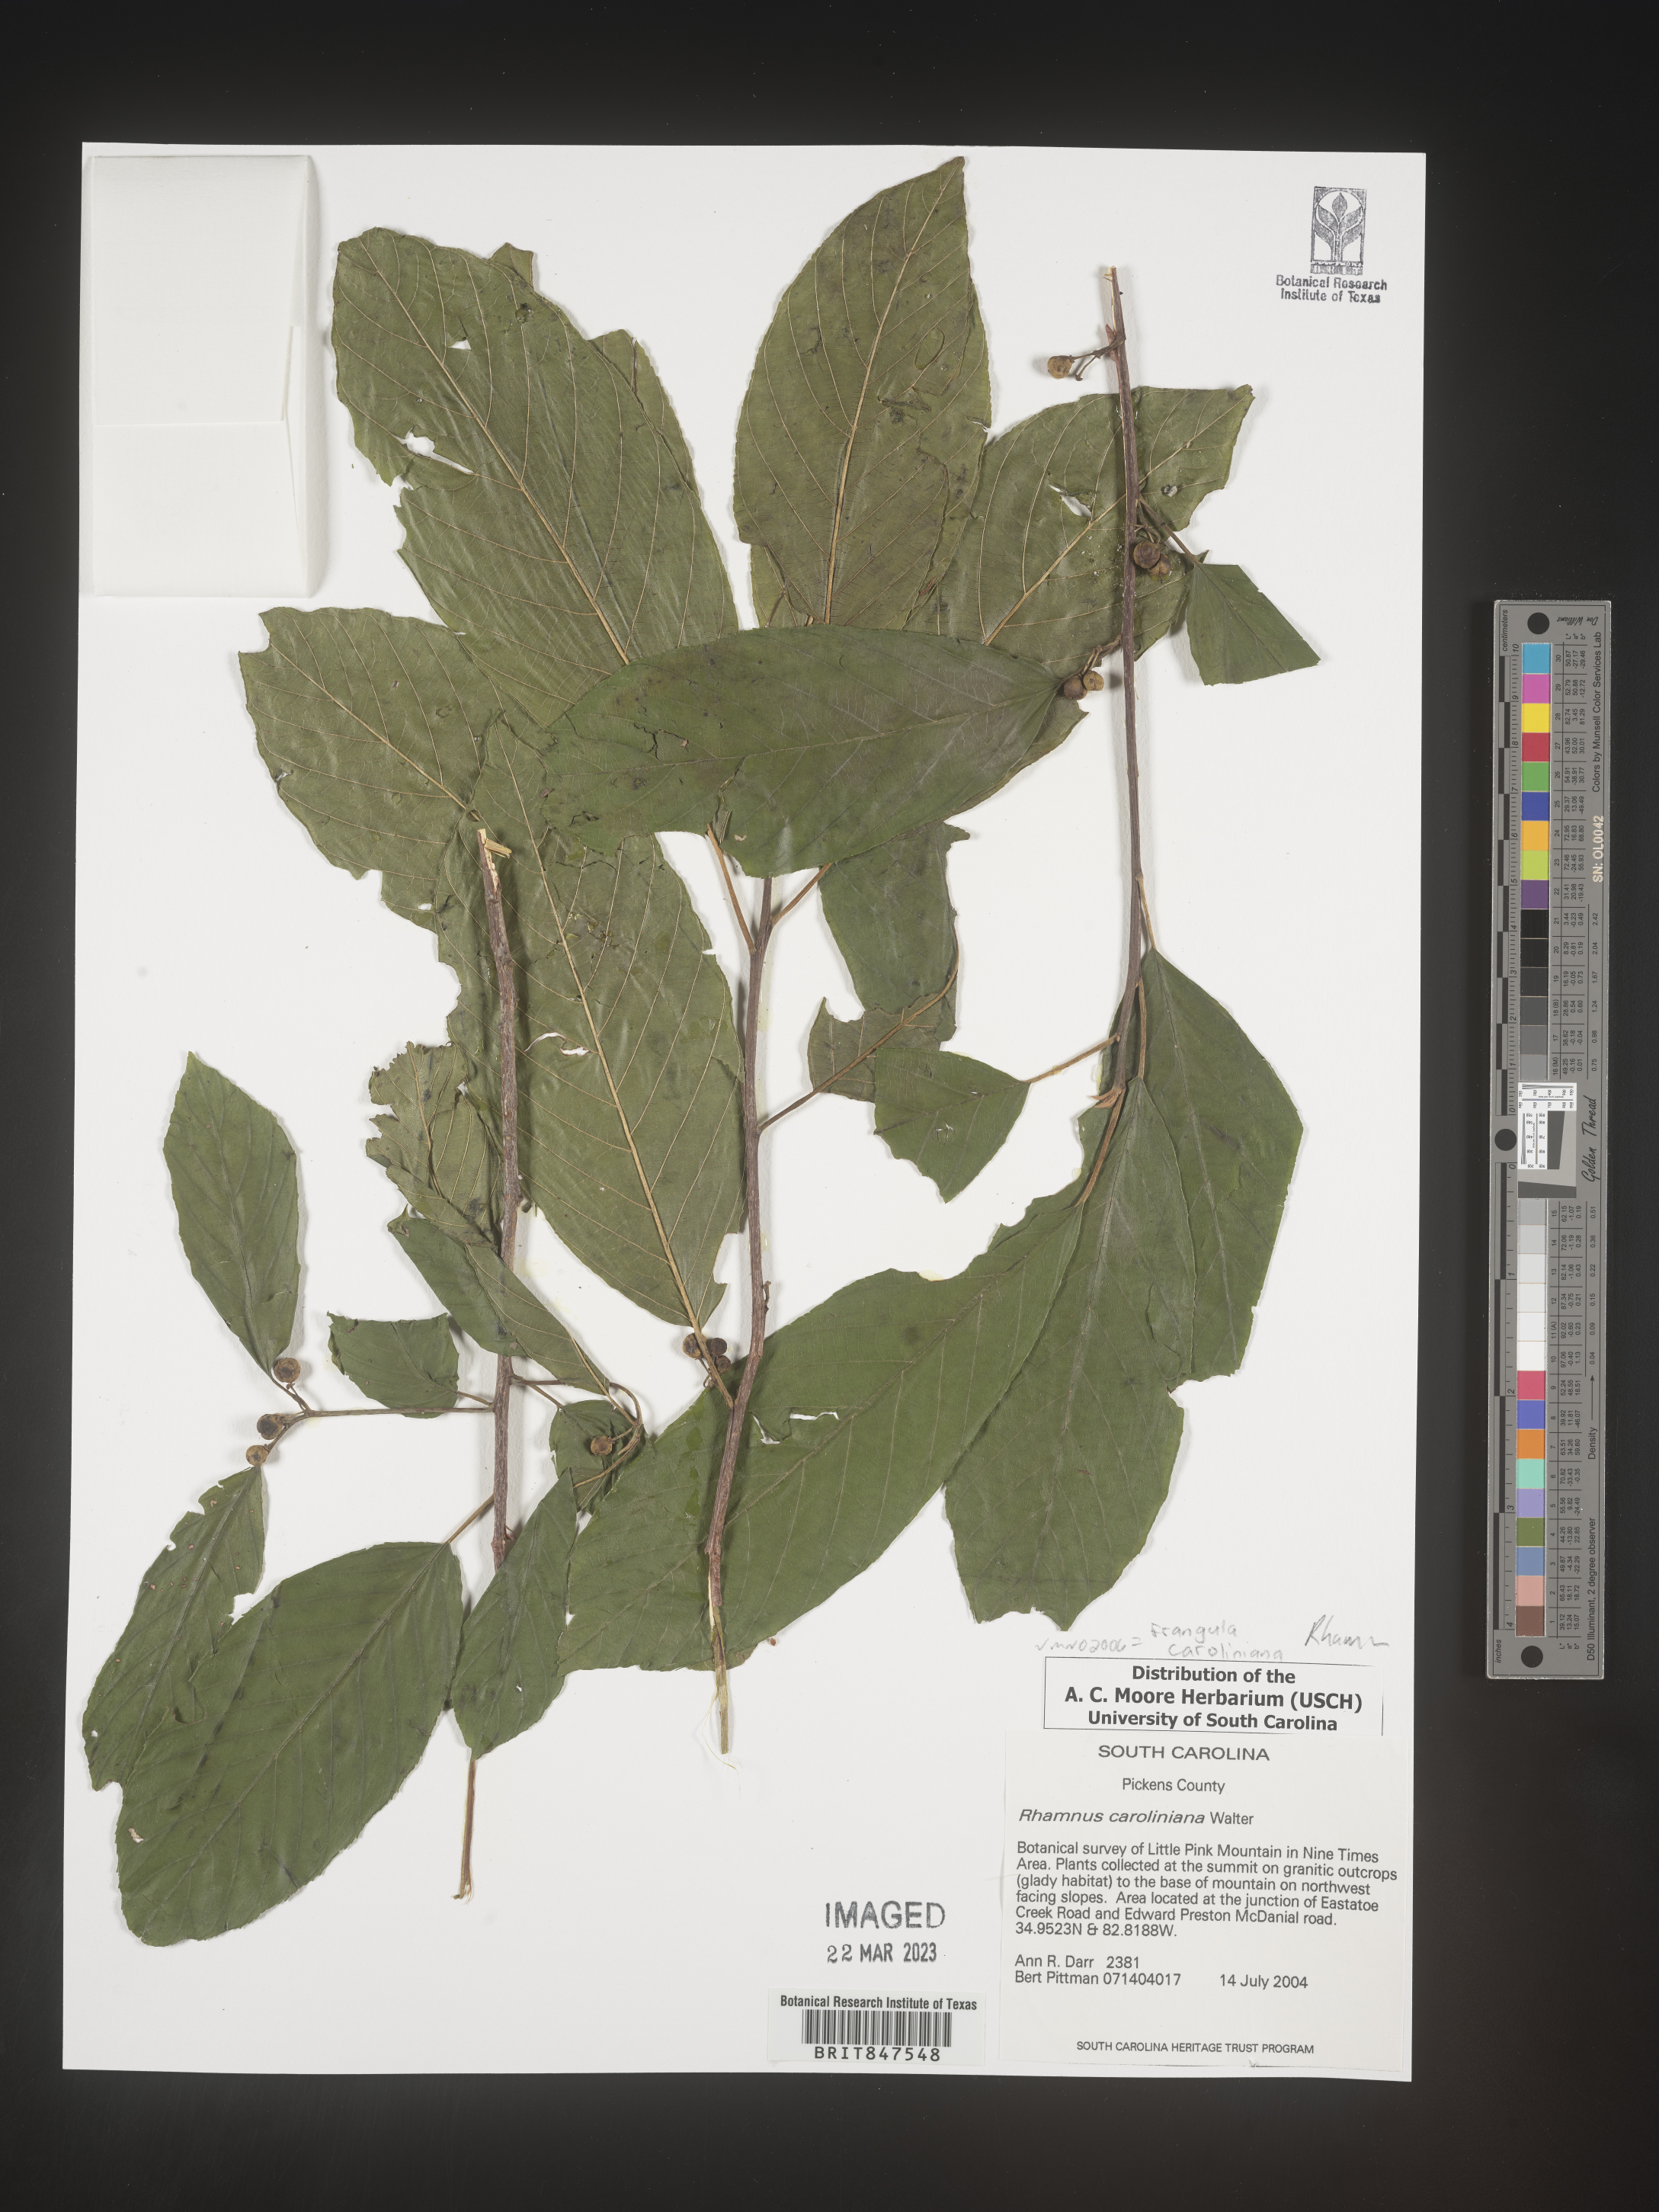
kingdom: Plantae
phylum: Tracheophyta
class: Magnoliopsida
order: Rosales
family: Rhamnaceae
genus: Frangula
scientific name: Frangula caroliniana
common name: Carolina buckthorn
